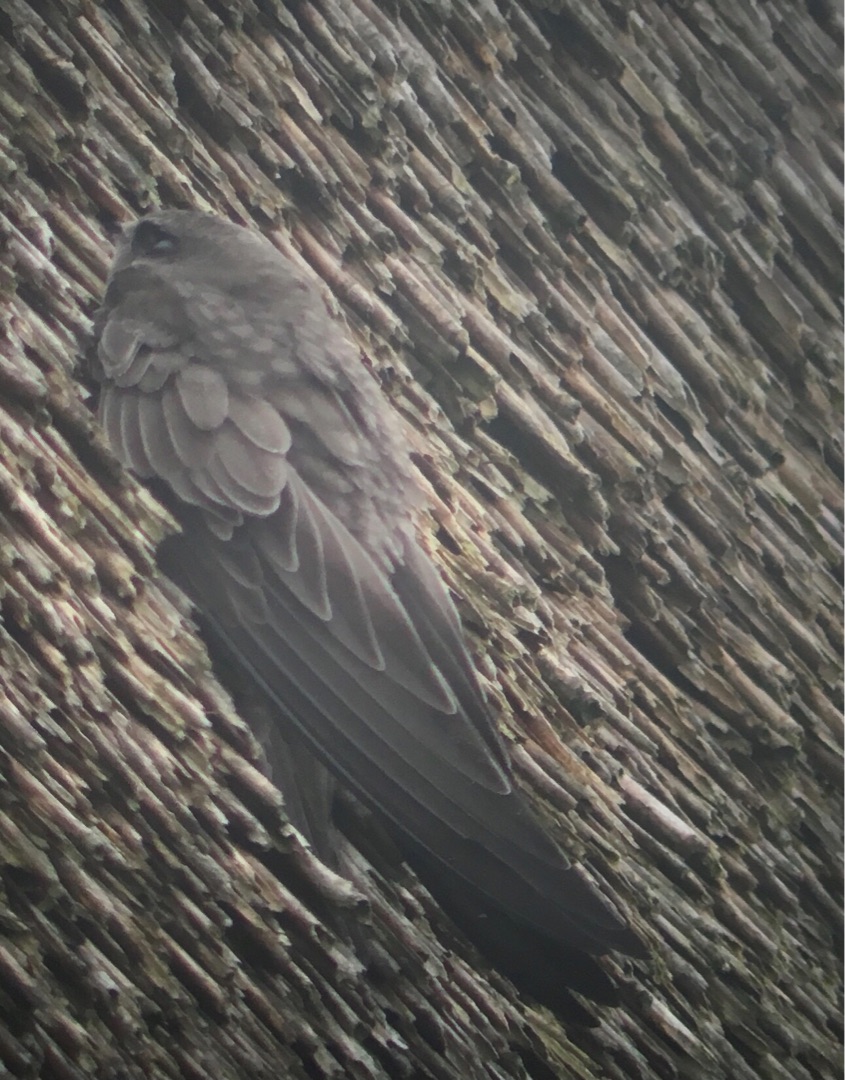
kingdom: Animalia
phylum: Chordata
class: Aves
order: Apodiformes
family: Apodidae
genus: Apus
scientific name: Apus pallidus
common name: Gråsejler
